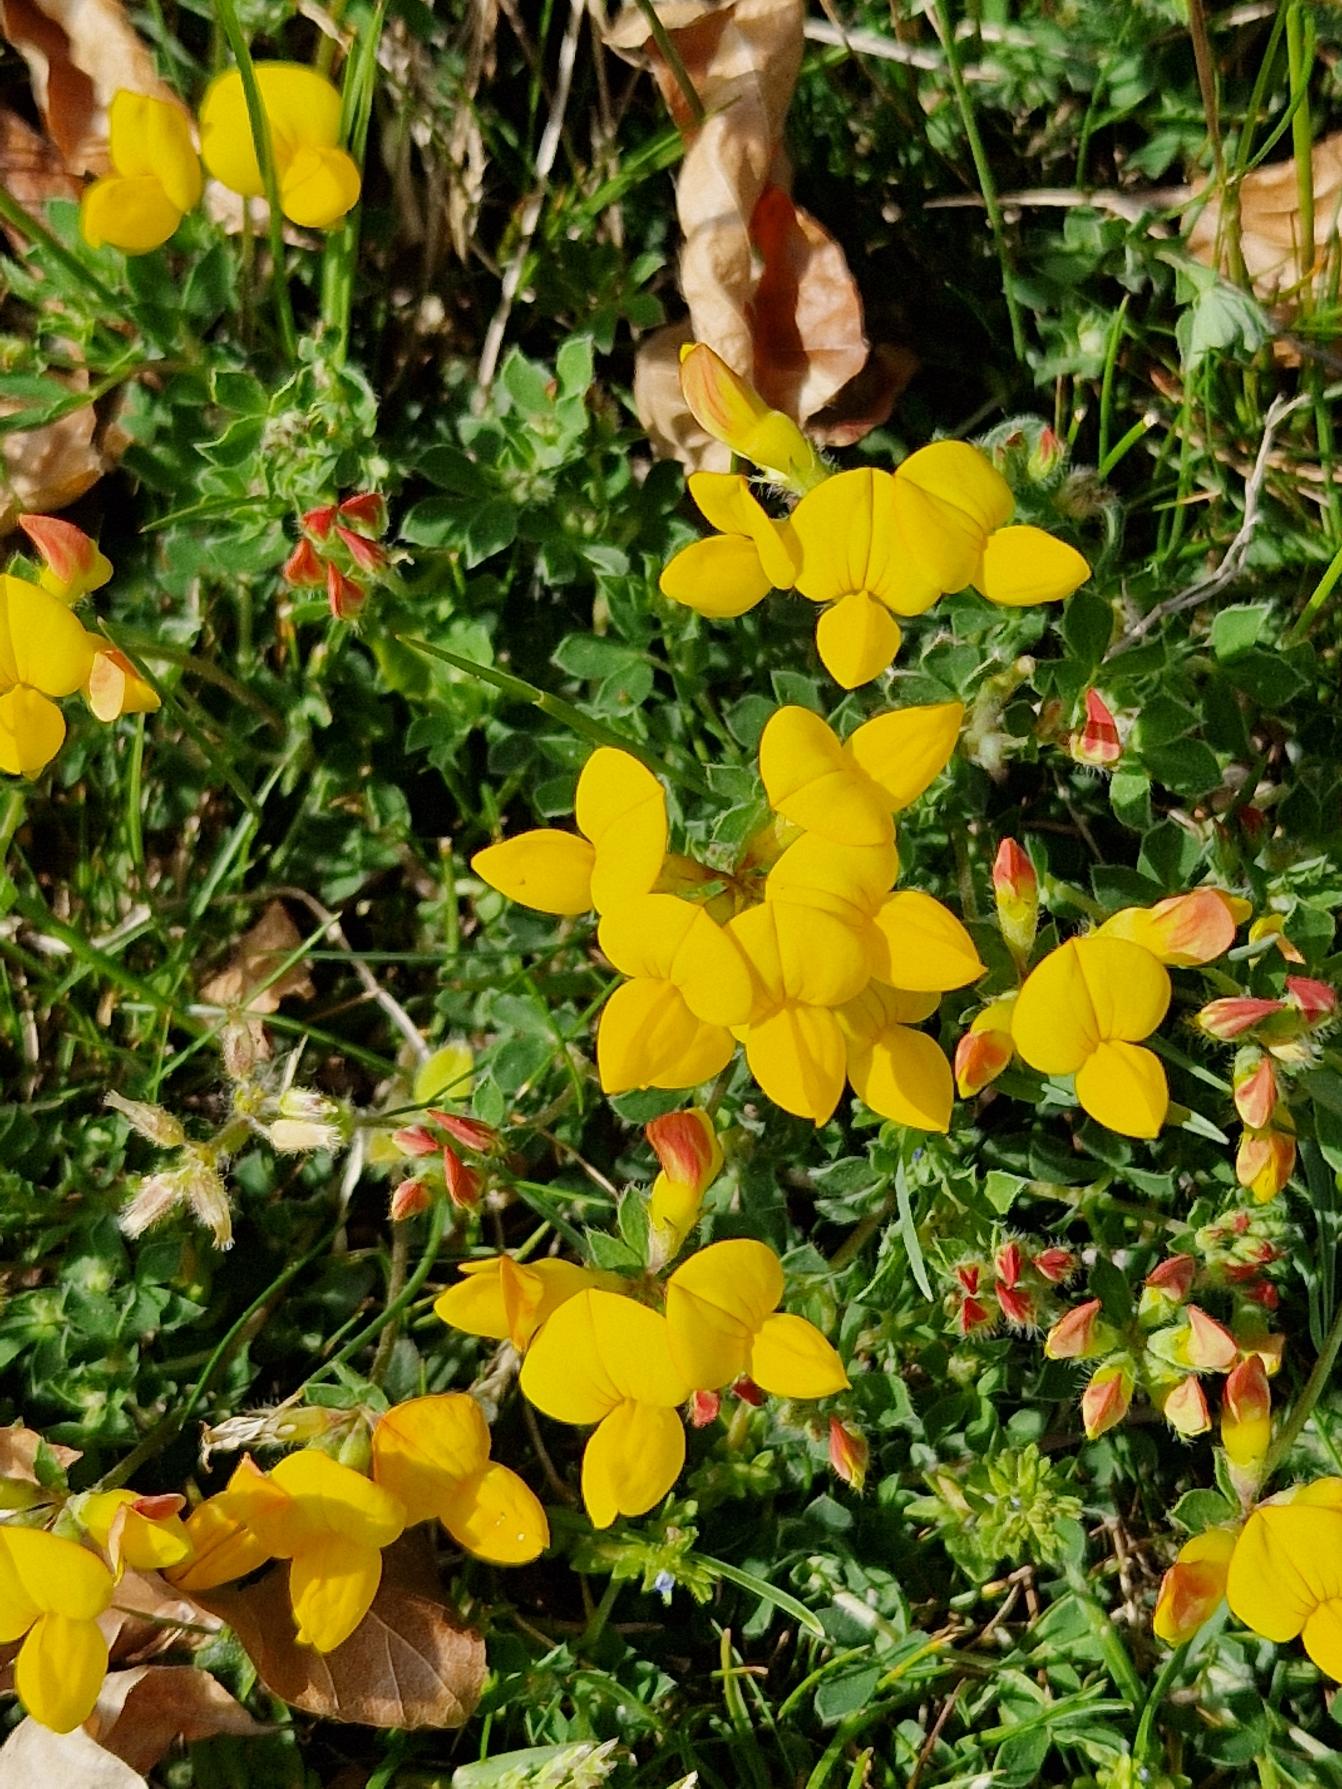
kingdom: Plantae
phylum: Tracheophyta
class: Magnoliopsida
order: Fabales
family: Fabaceae
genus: Lotus
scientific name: Lotus corniculatus
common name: Almindelig kællingetand
